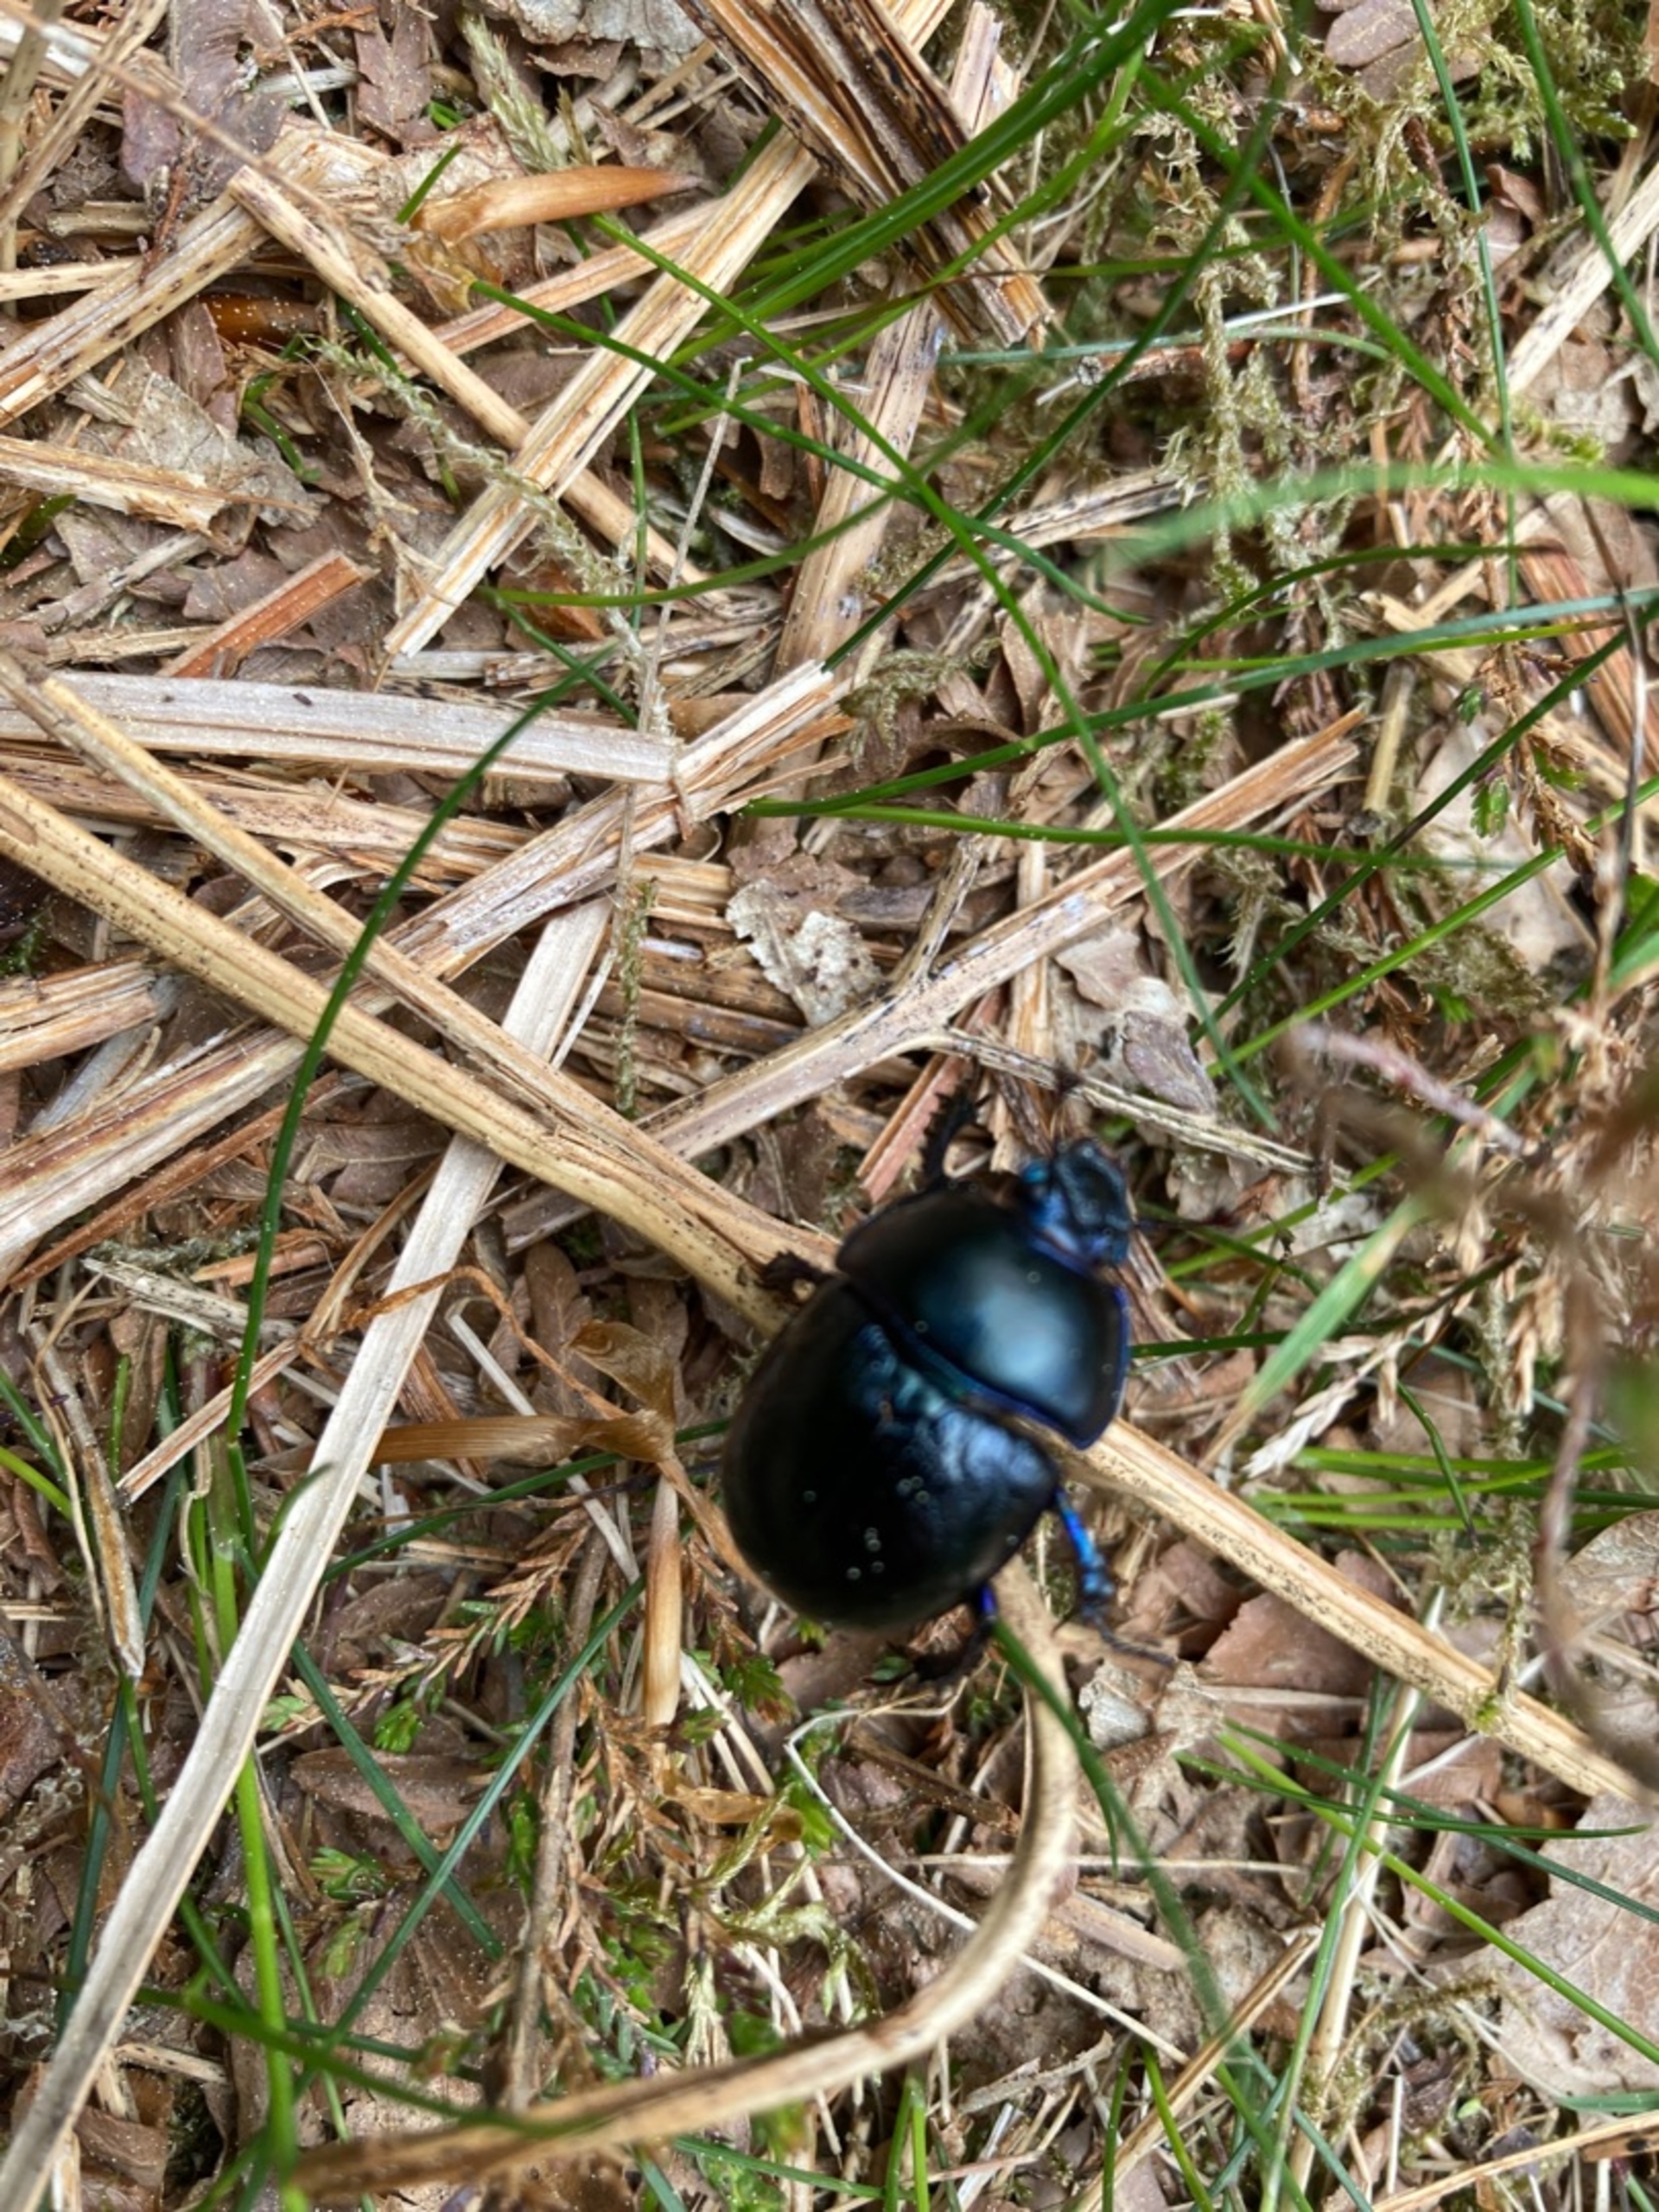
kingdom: Animalia
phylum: Arthropoda
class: Insecta
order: Coleoptera
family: Geotrupidae
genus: Anoplotrupes
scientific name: Anoplotrupes stercorosus
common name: Skovskarnbasse
